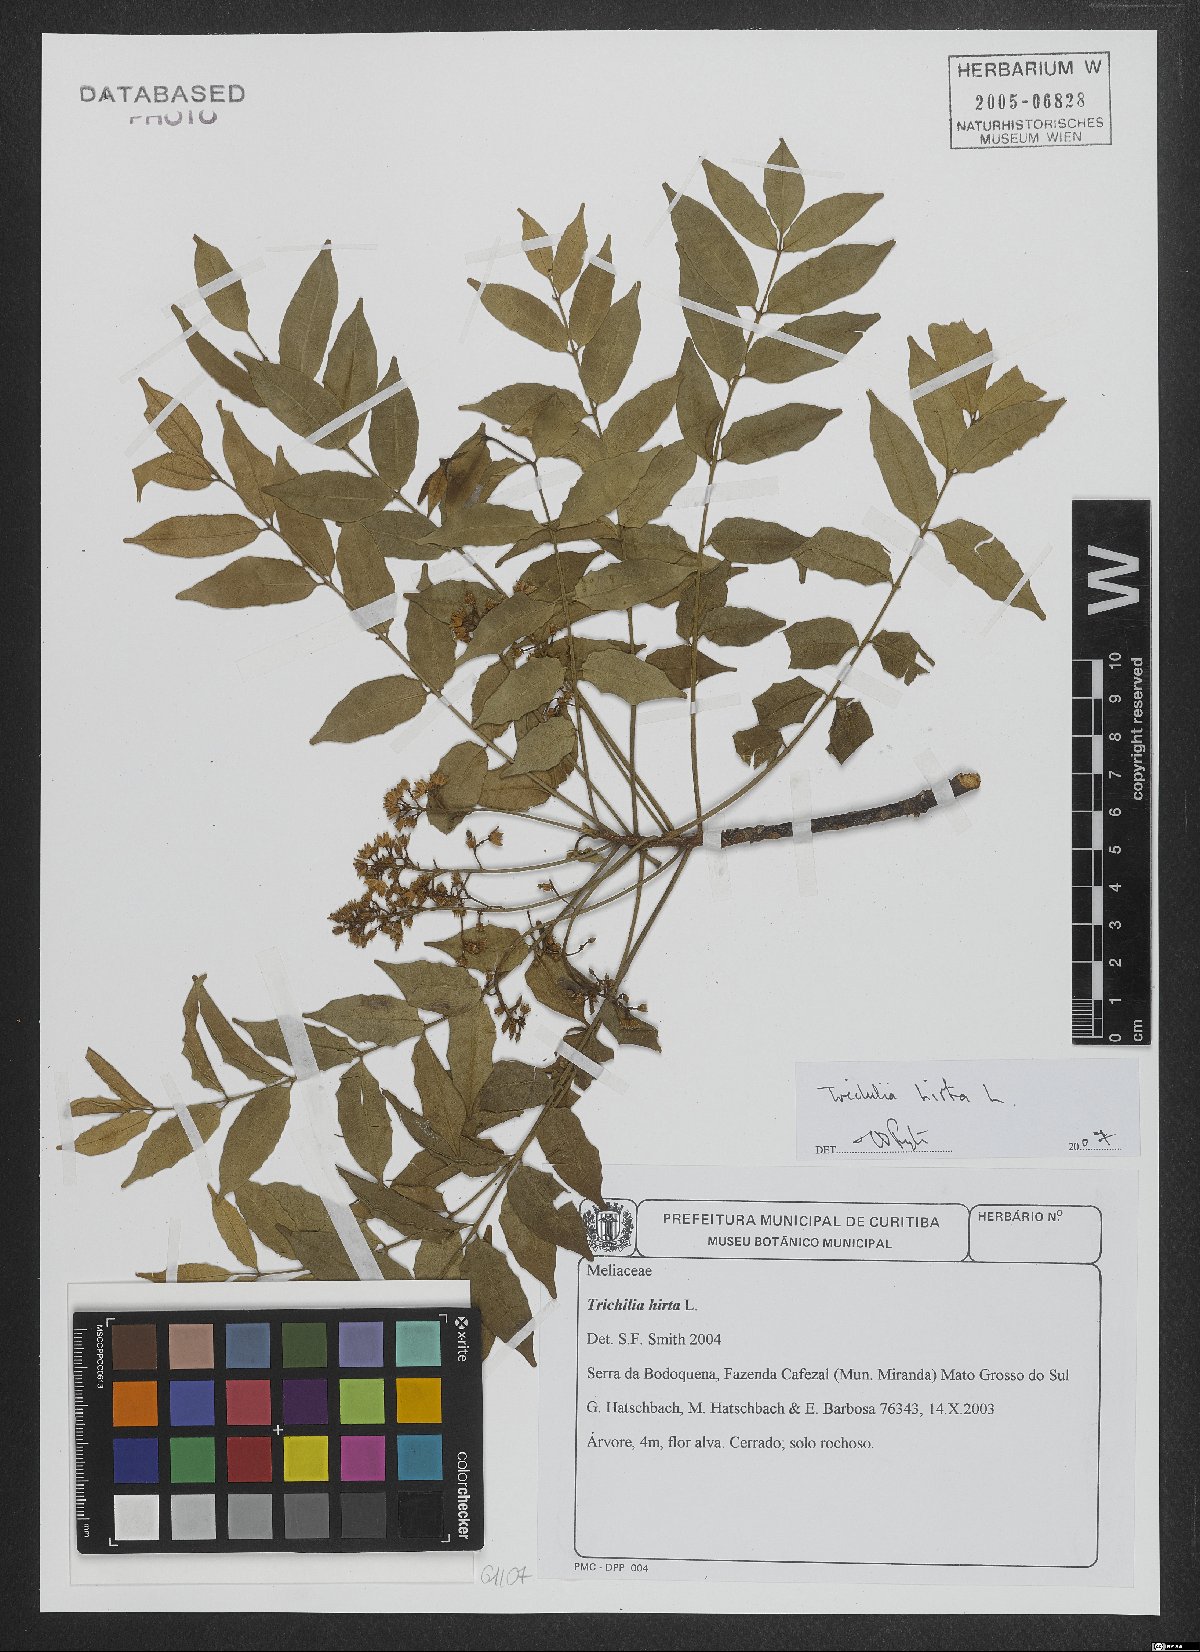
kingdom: Plantae
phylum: Tracheophyta
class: Magnoliopsida
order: Sapindales
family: Meliaceae
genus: Trichilia
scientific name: Trichilia hirta
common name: Red-cedar
